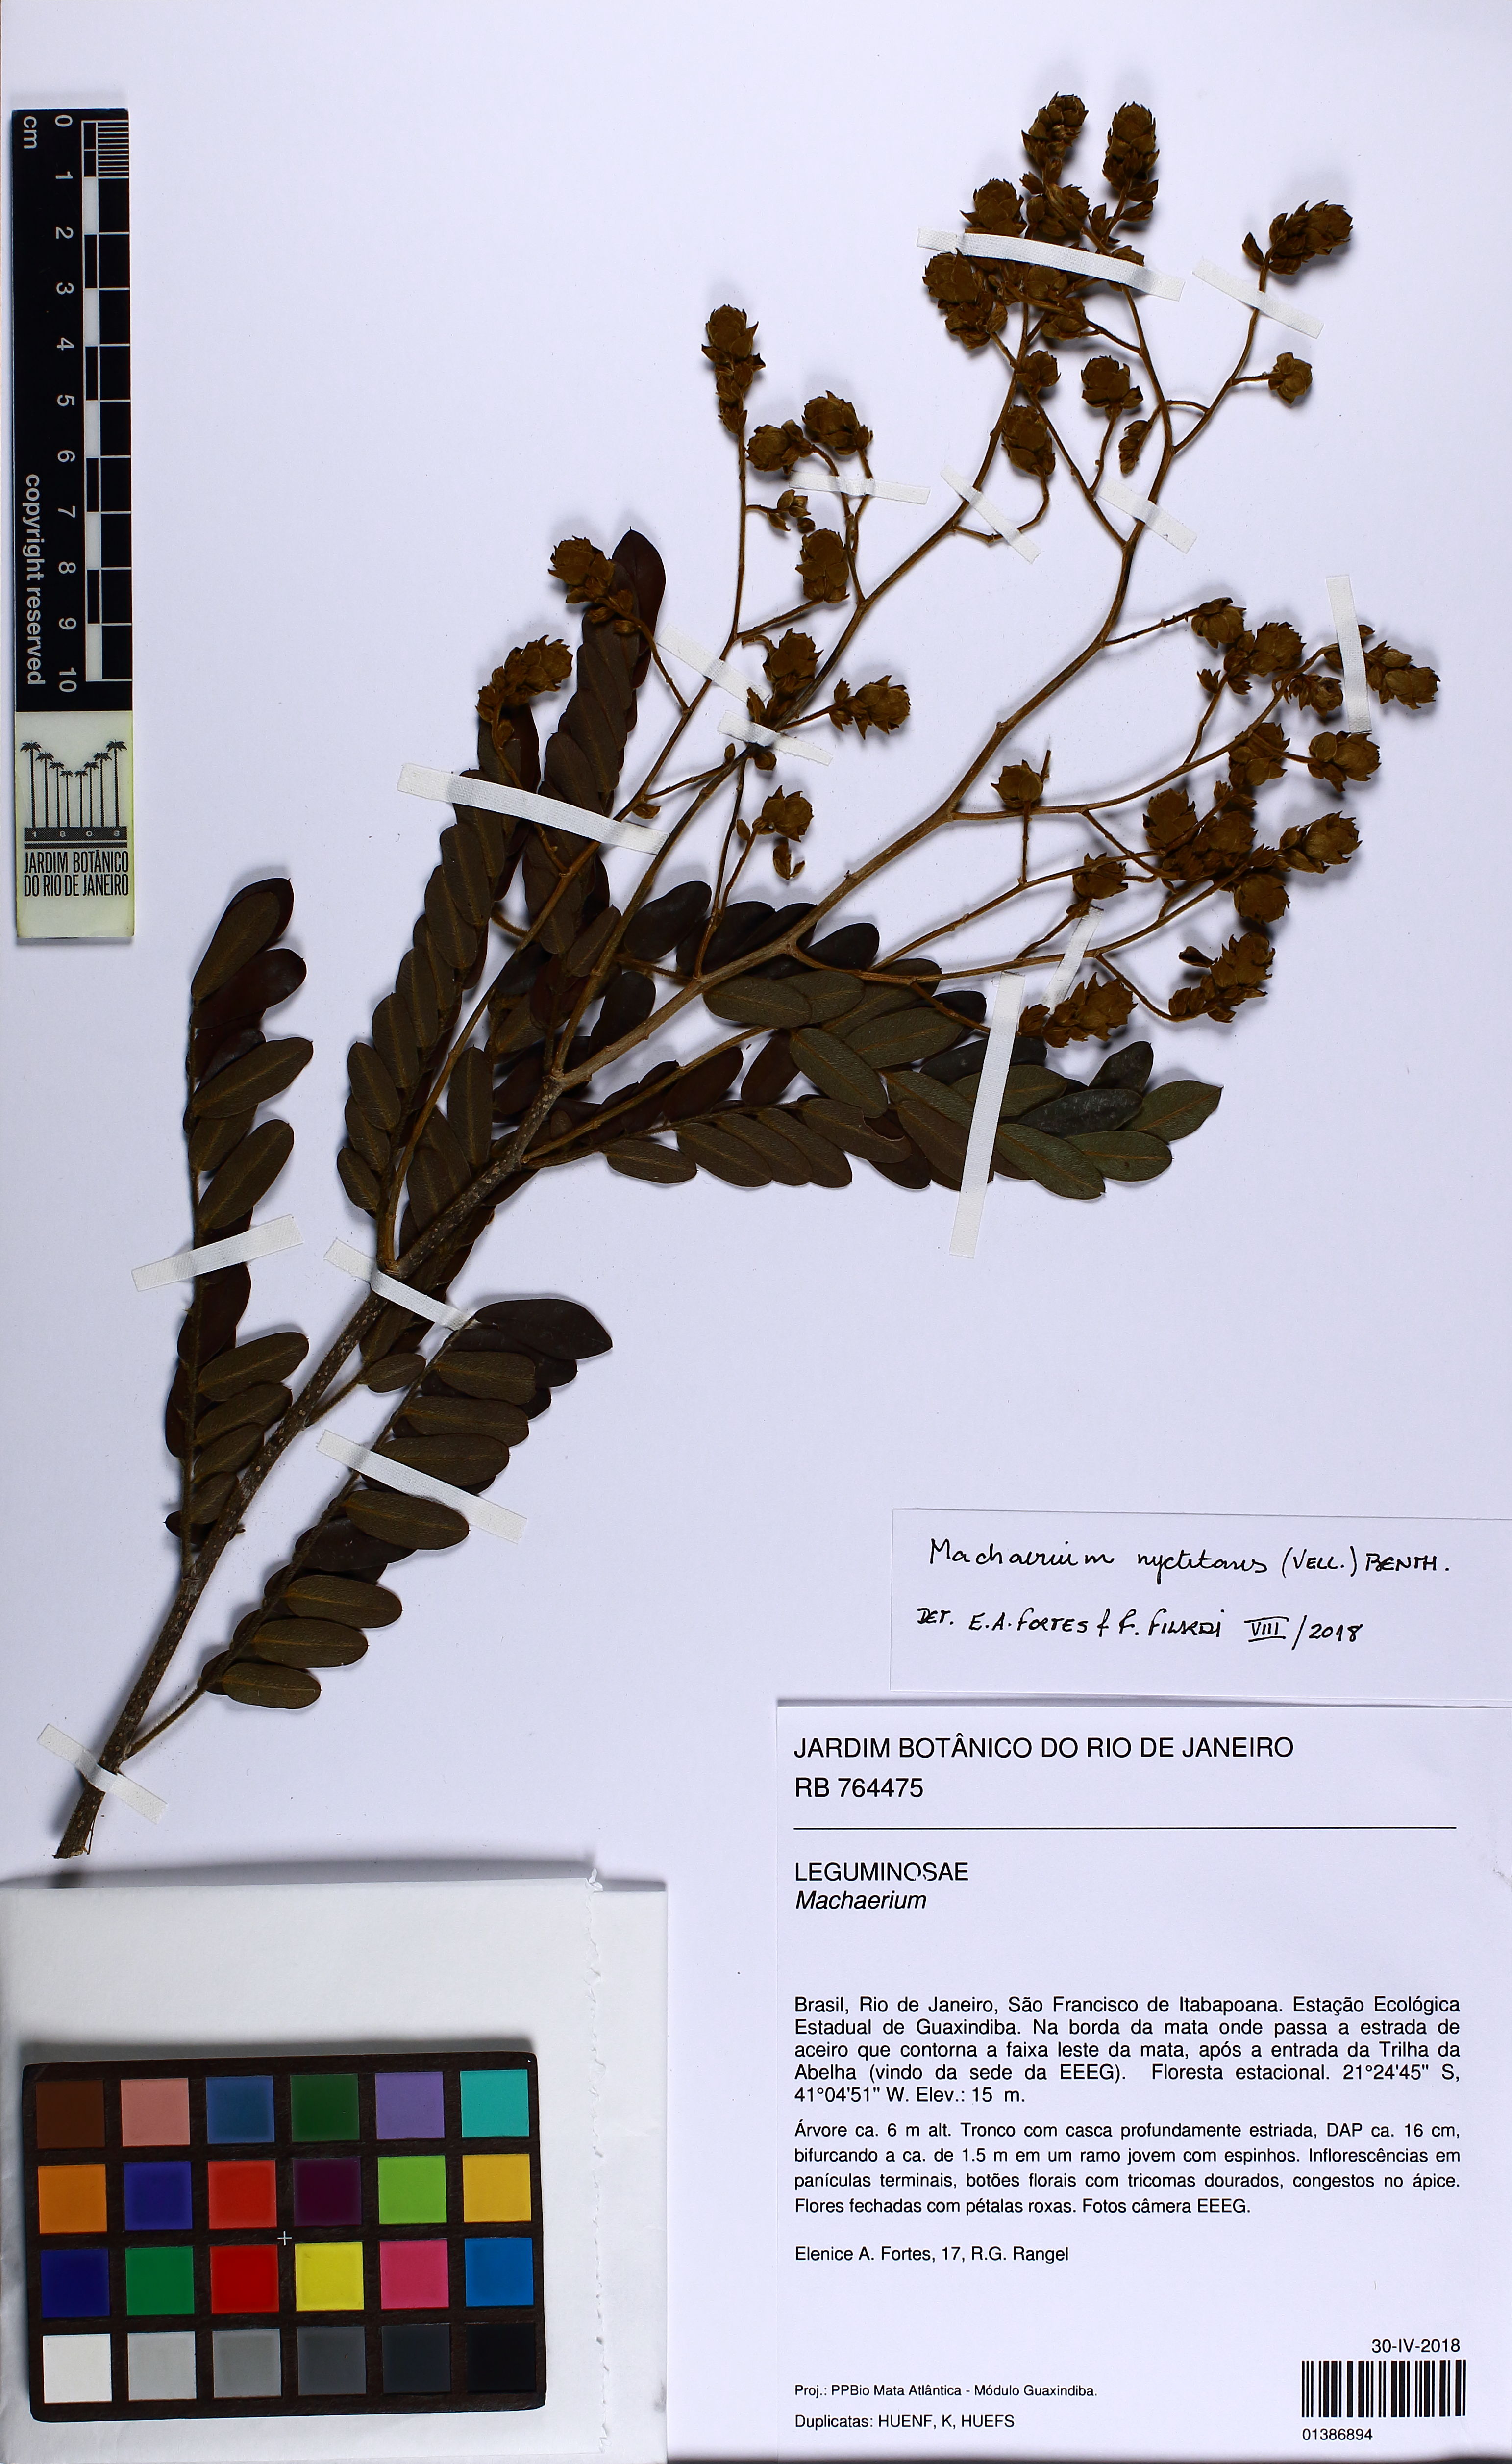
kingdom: Plantae
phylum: Tracheophyta
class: Magnoliopsida
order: Fabales
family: Fabaceae
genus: Machaerium
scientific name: Machaerium nyctitans
